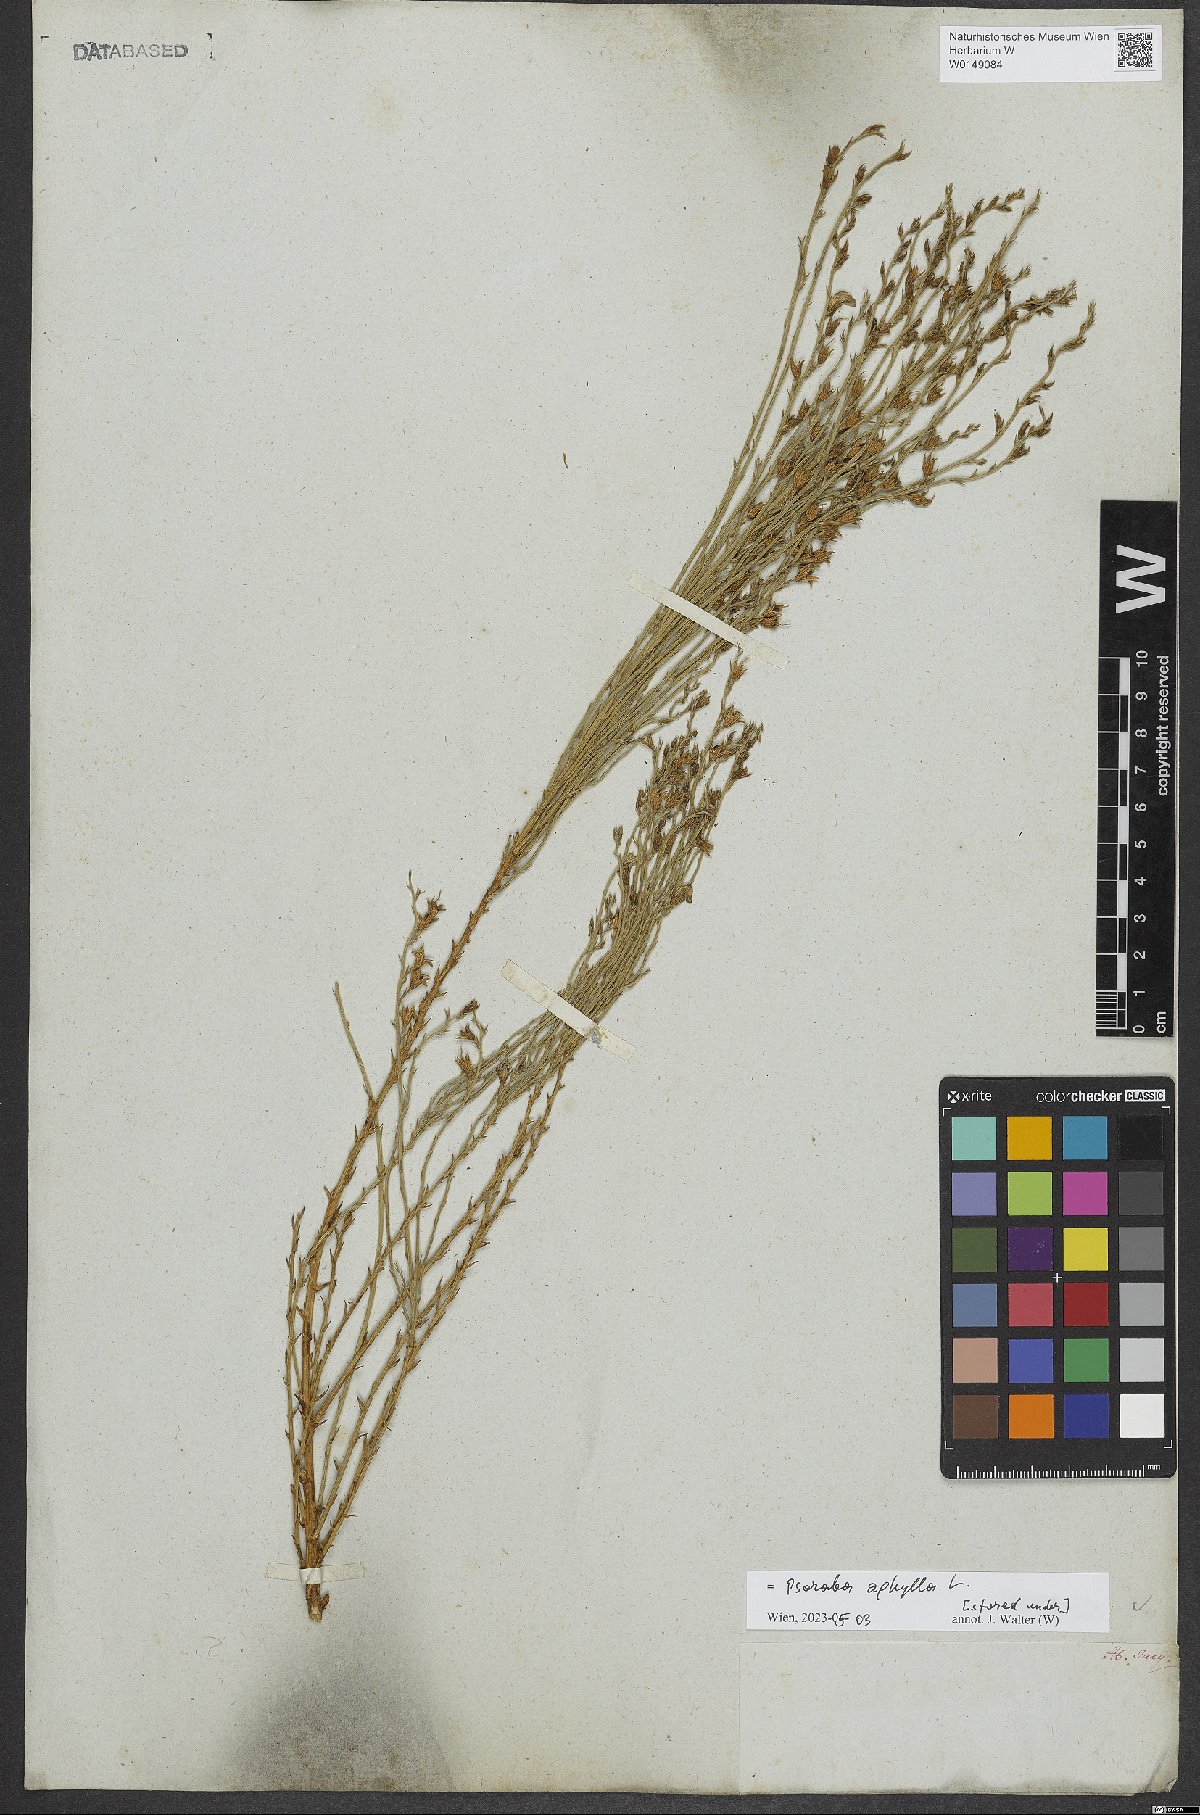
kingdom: Plantae
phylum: Tracheophyta
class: Magnoliopsida
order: Fabales
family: Fabaceae
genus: Psoralea
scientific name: Psoralea aphylla
